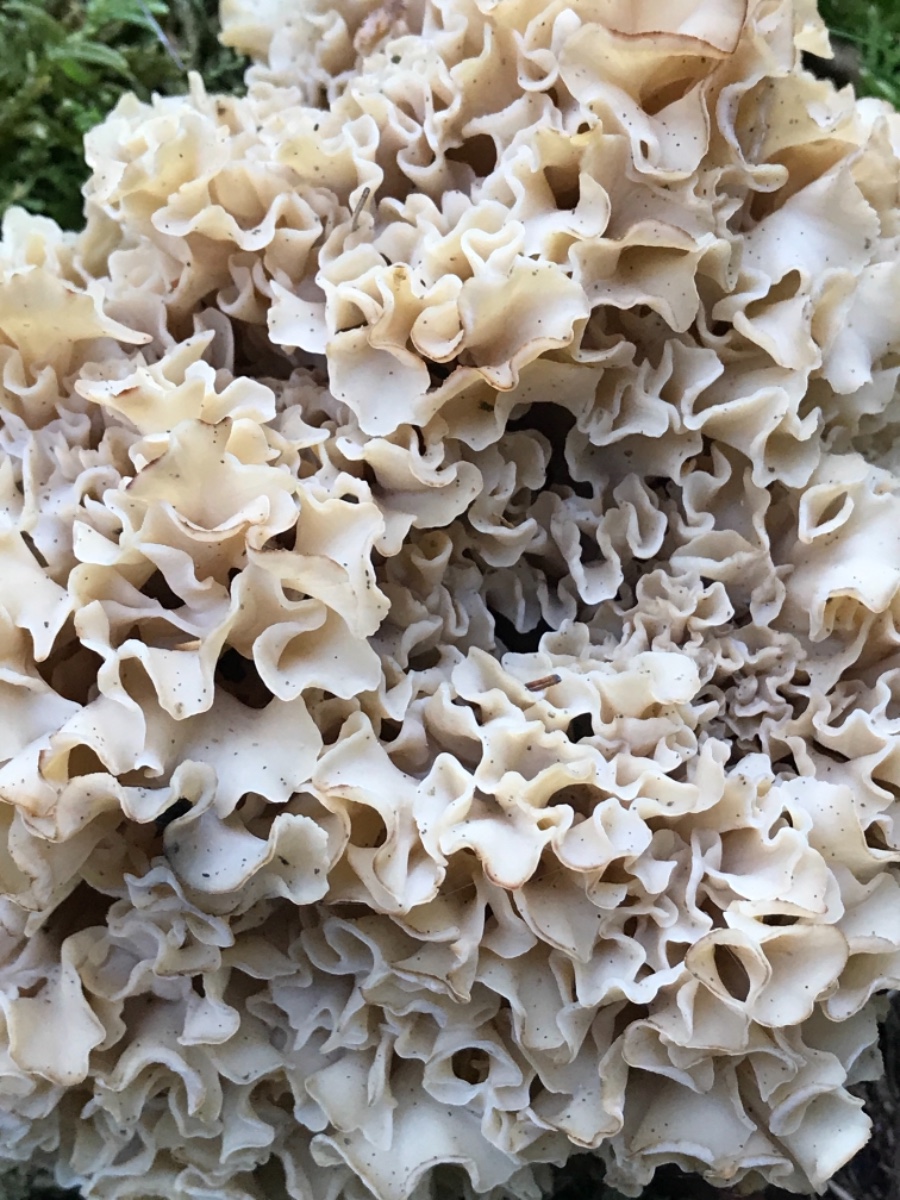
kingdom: Fungi
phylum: Basidiomycota
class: Agaricomycetes
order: Polyporales
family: Sparassidaceae
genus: Sparassis
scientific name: Sparassis crispa
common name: kruset blomkålssvamp
